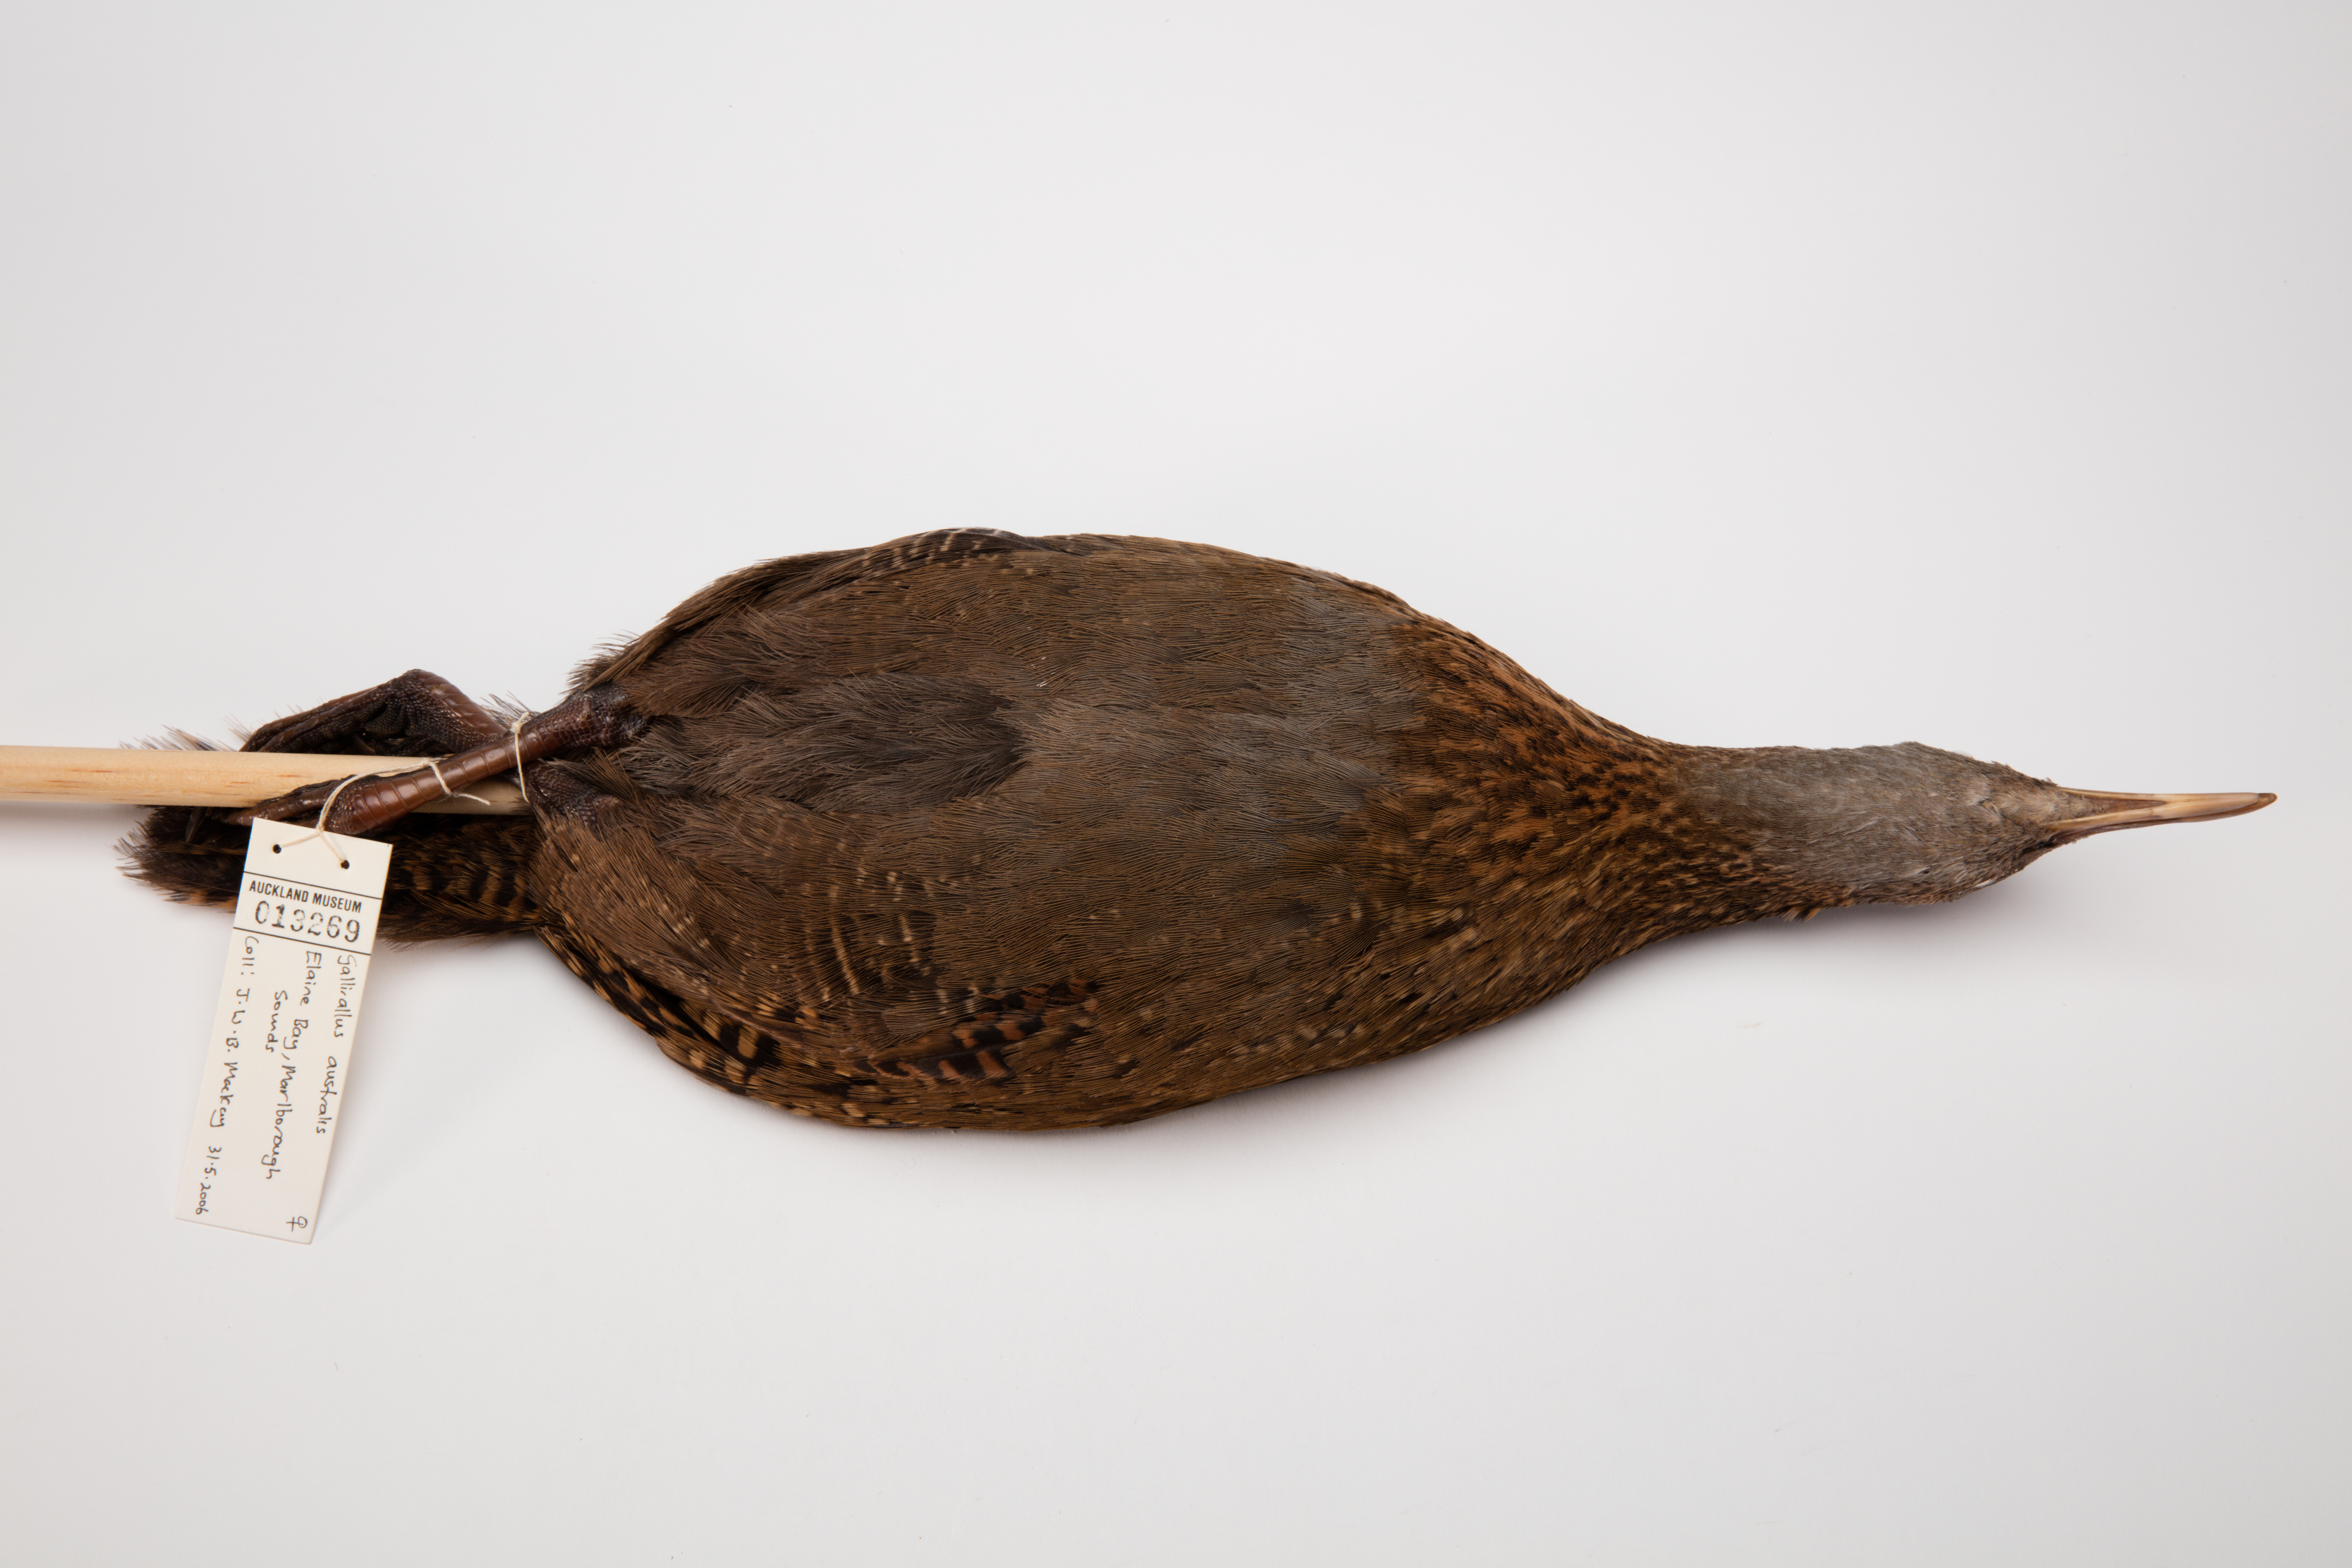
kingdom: Animalia
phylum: Chordata
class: Aves
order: Gruiformes
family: Rallidae
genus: Gallirallus
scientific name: Gallirallus australis
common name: Weka
